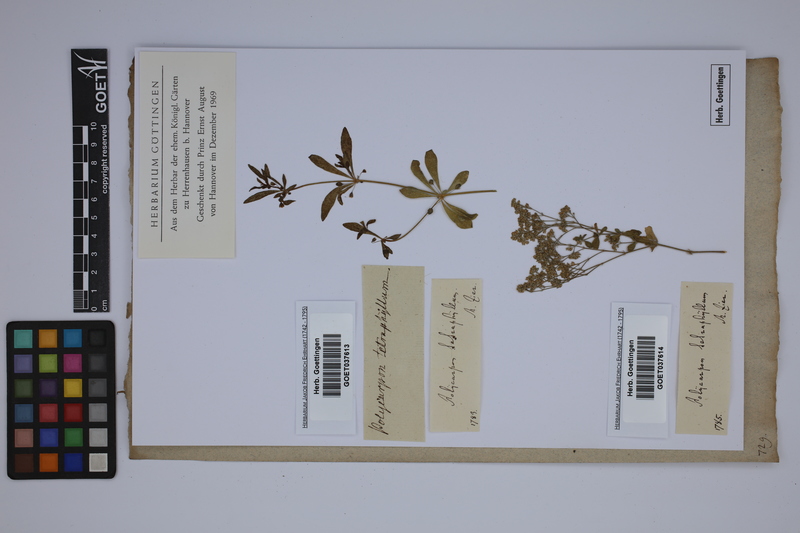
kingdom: Plantae
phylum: Tracheophyta
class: Magnoliopsida
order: Caryophyllales
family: Caryophyllaceae
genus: Polycarpon
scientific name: Polycarpon tetraphyllum
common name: Four-leaved all-seed
